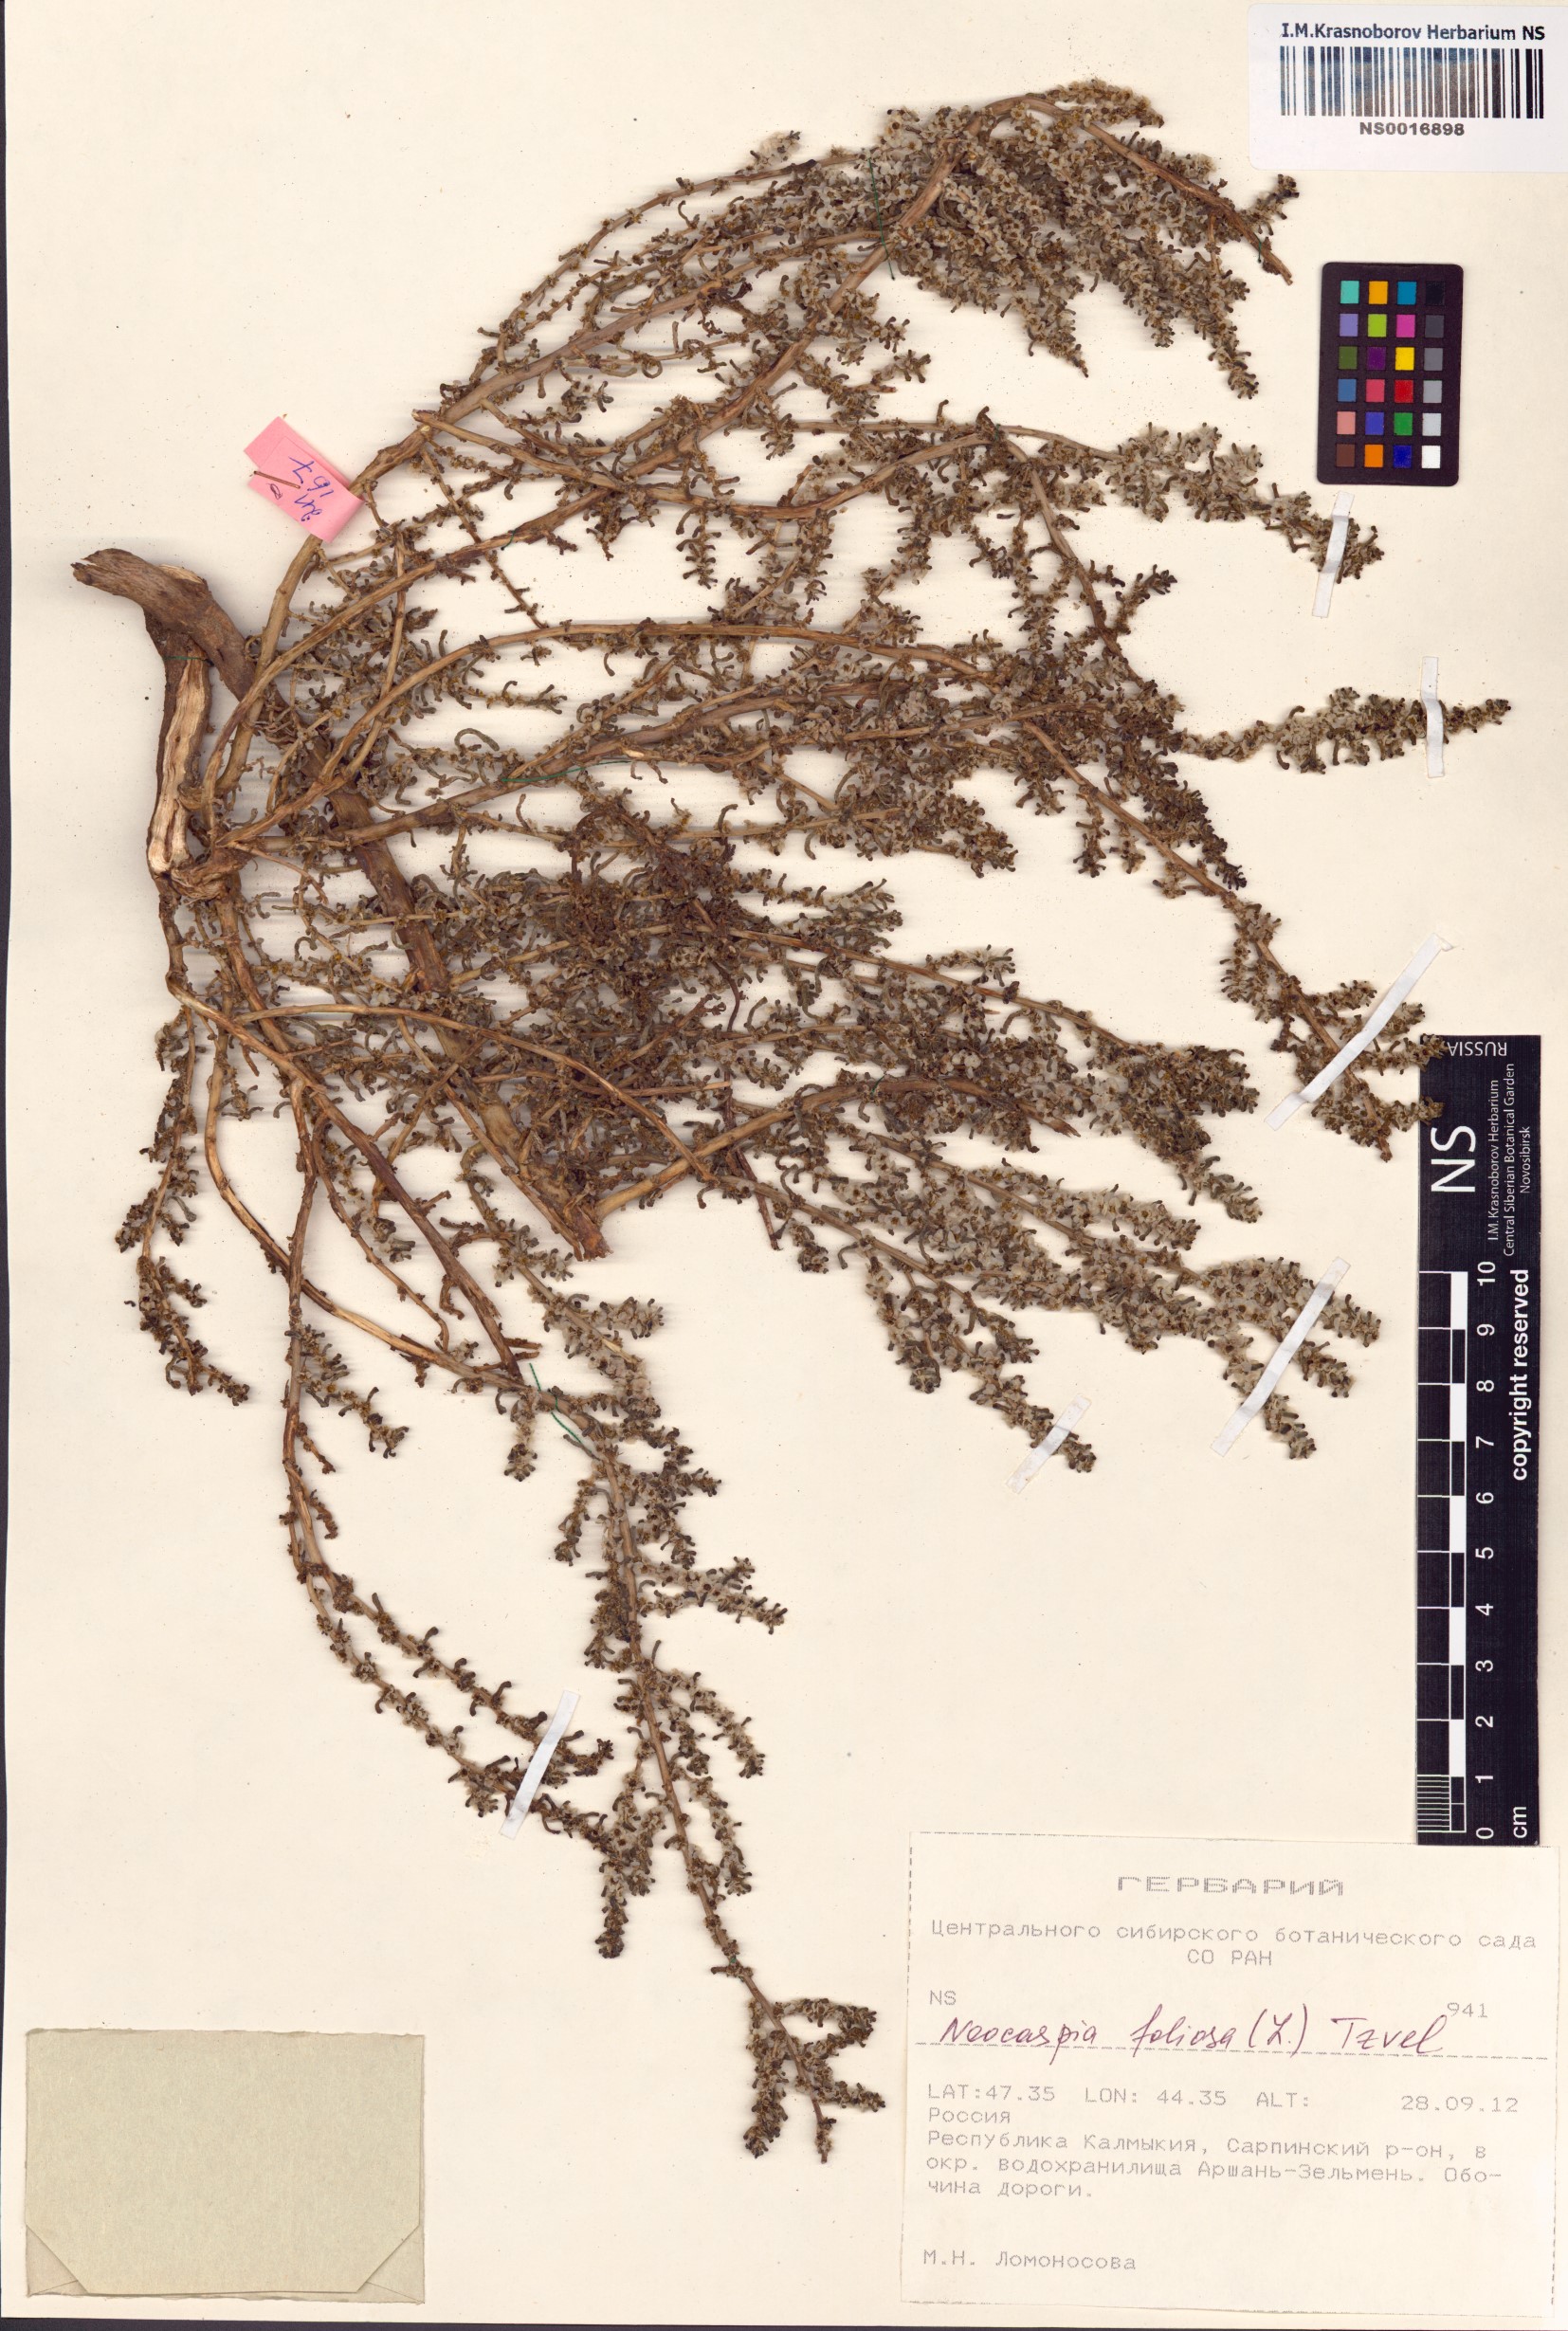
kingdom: Plantae
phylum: Tracheophyta
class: Magnoliopsida
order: Caryophyllales
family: Amaranthaceae
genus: Soda
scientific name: Soda foliosa
